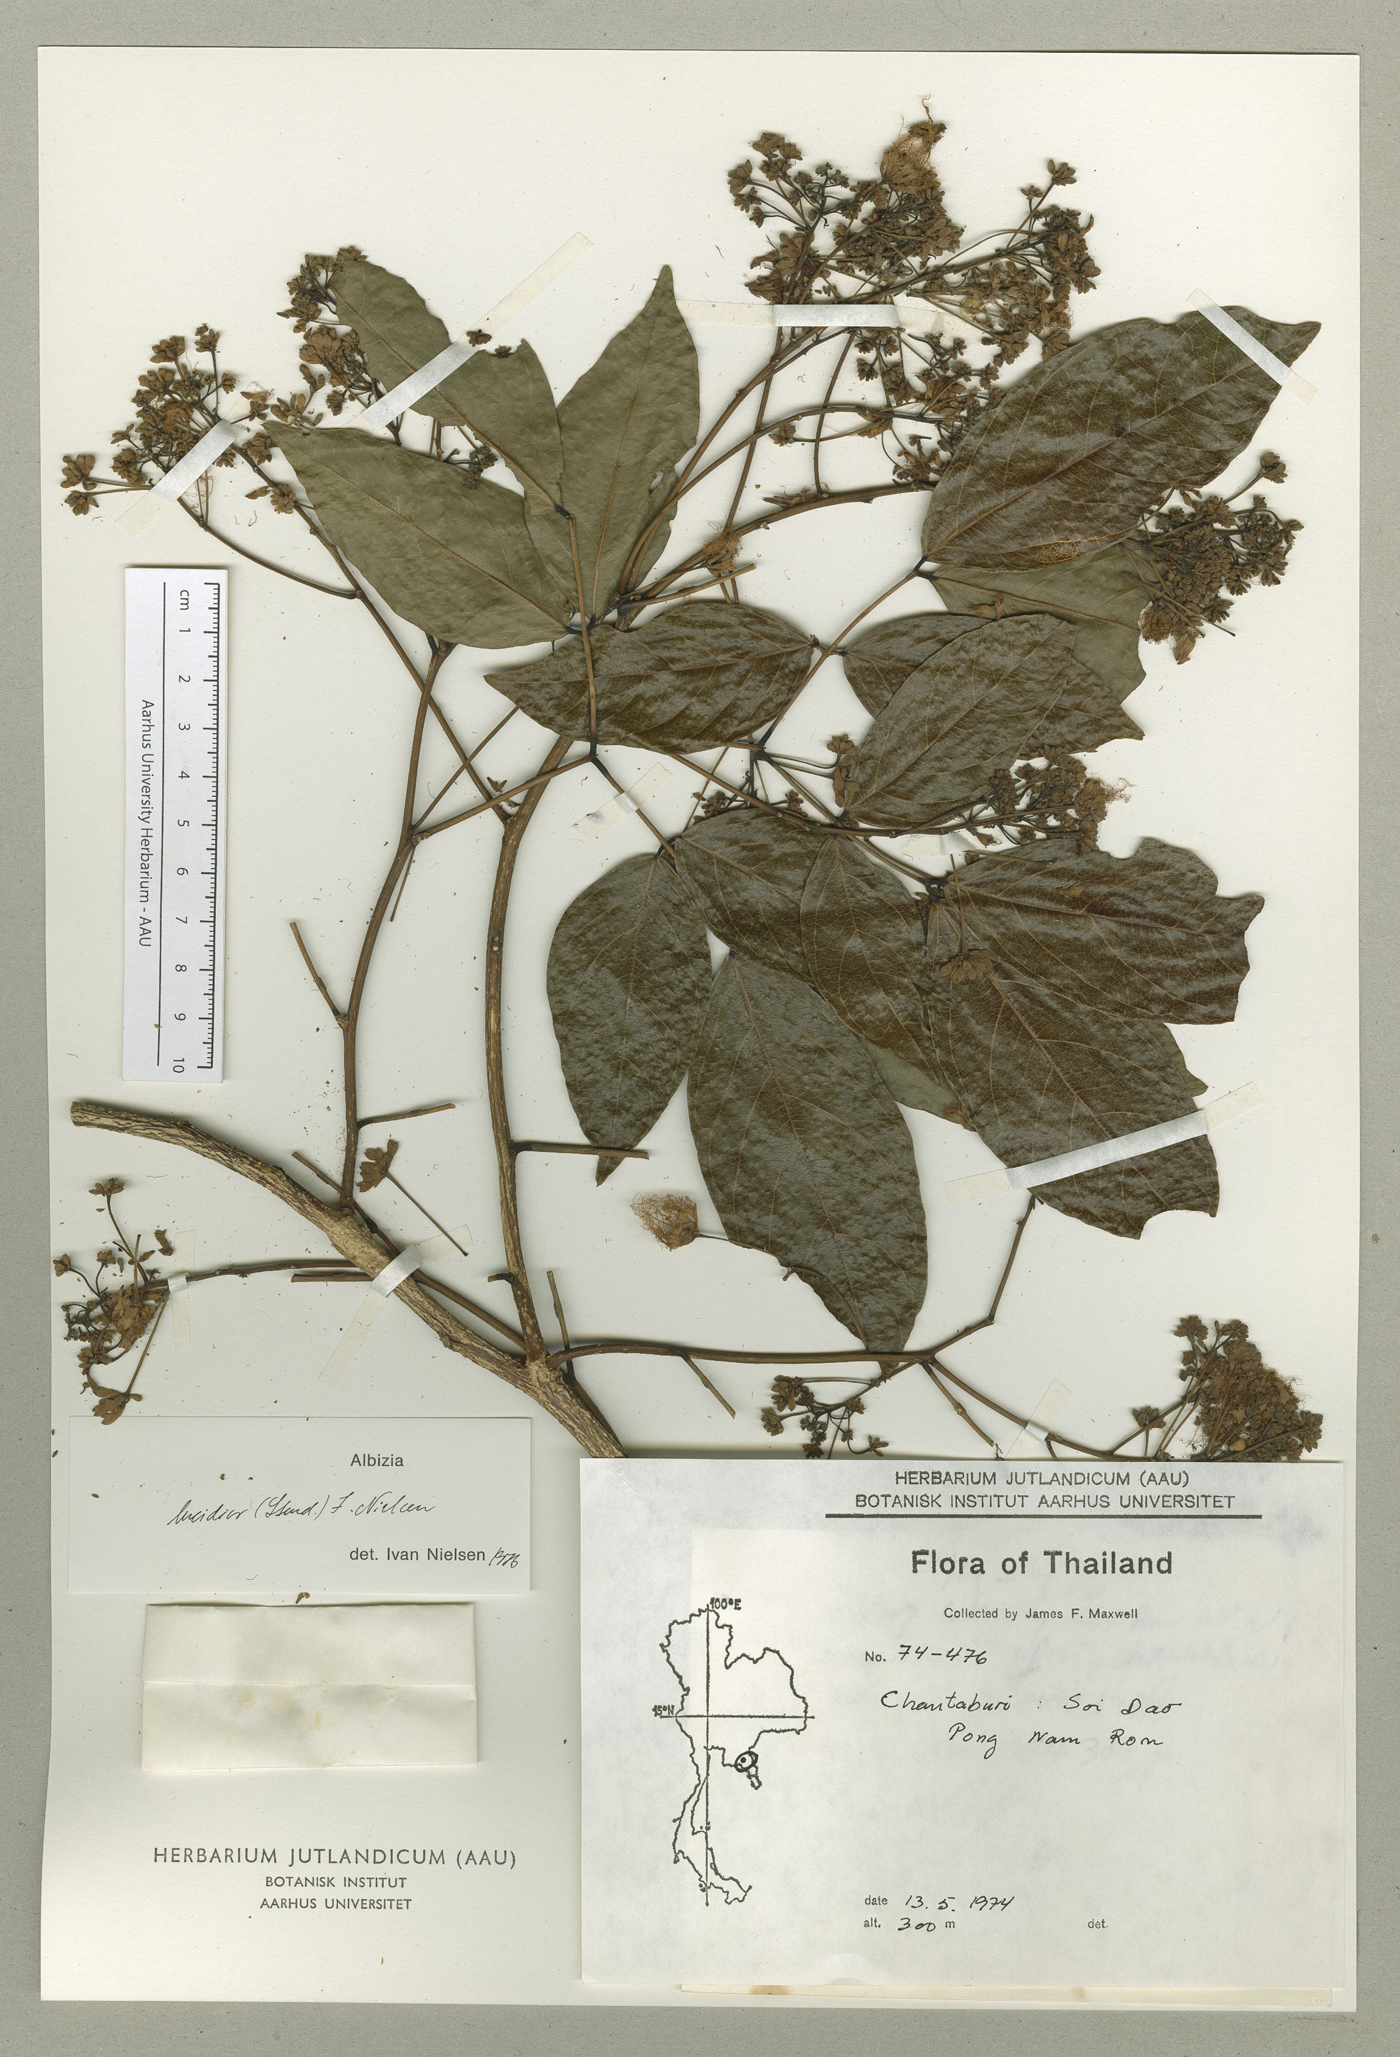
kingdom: Plantae
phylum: Tracheophyta
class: Magnoliopsida
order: Fabales
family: Fabaceae
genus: Albizia
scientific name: Albizia lucidior
